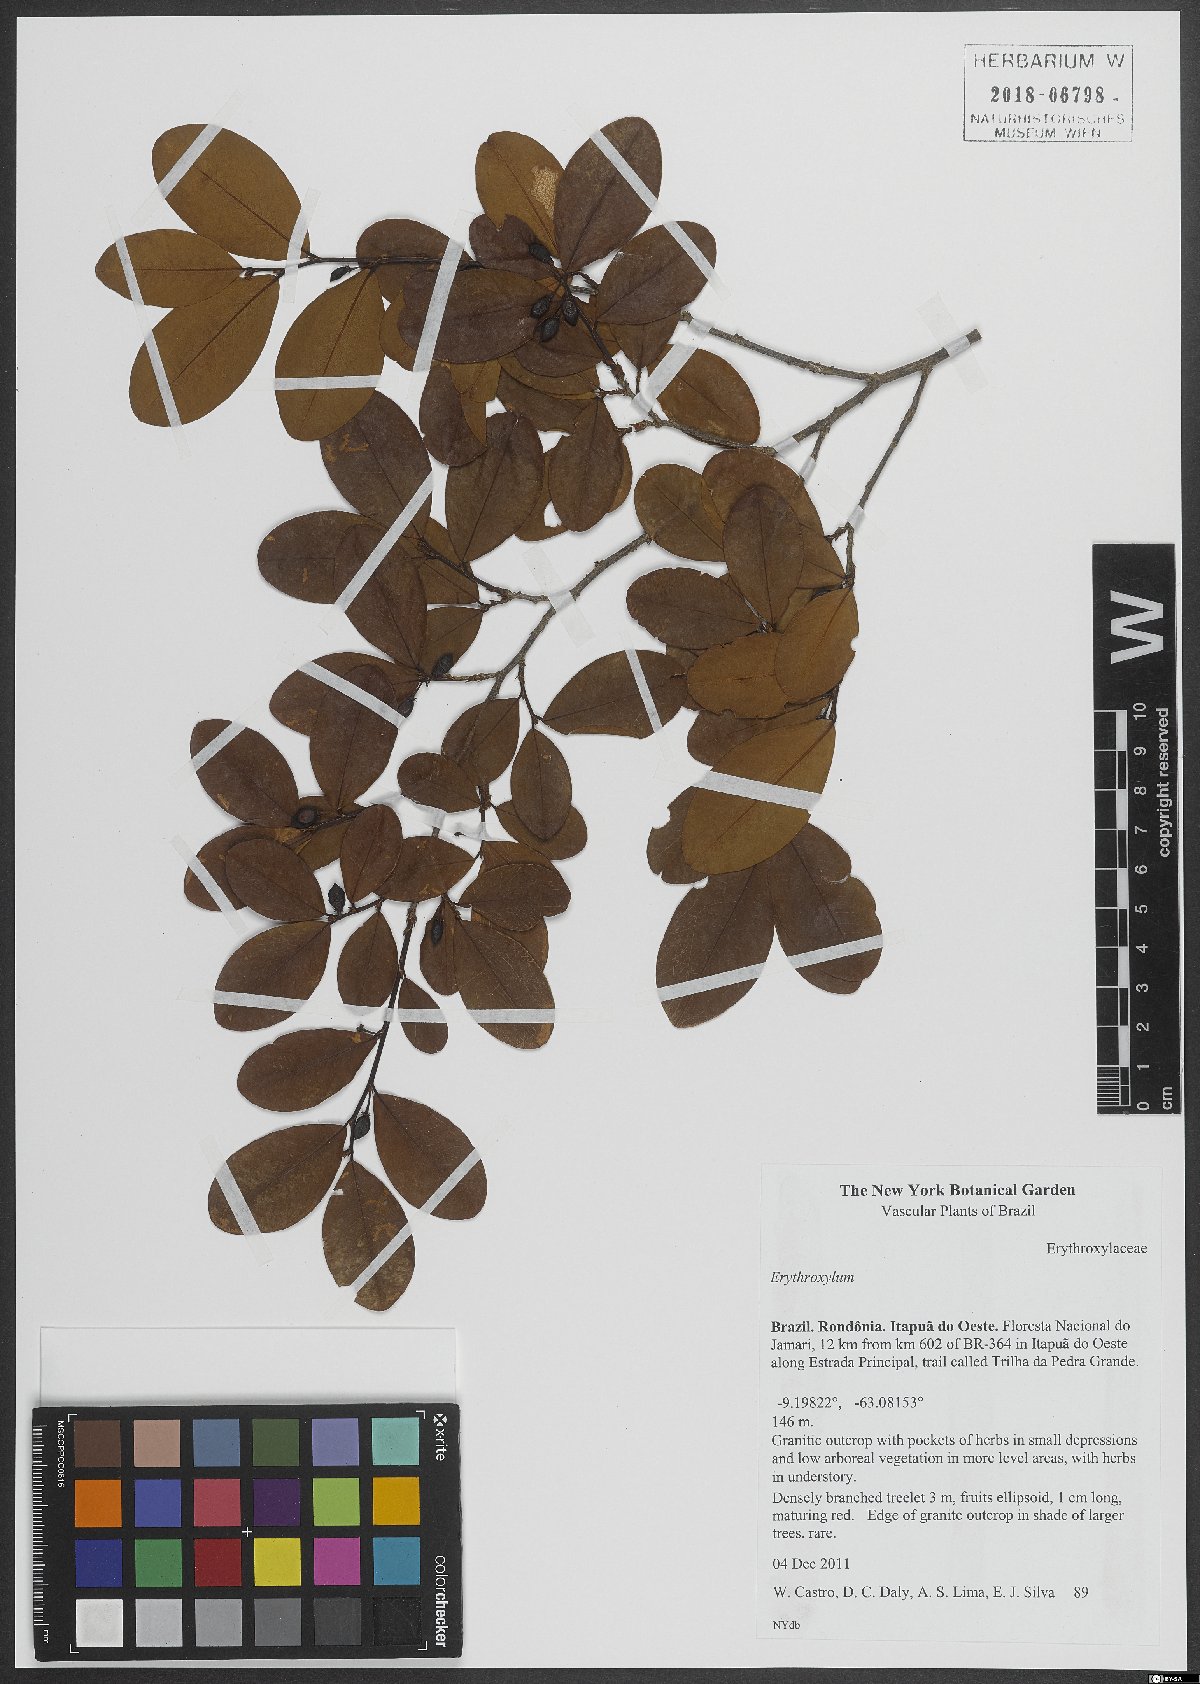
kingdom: Plantae
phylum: Tracheophyta
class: Magnoliopsida
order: Malpighiales
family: Erythroxylaceae
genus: Erythroxylum
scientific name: Erythroxylum
